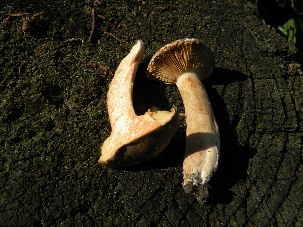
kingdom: Fungi
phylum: Basidiomycota
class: Agaricomycetes
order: Russulales
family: Russulaceae
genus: Lactarius
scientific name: Lactarius pterosporus
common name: vingesporet mælkehat
